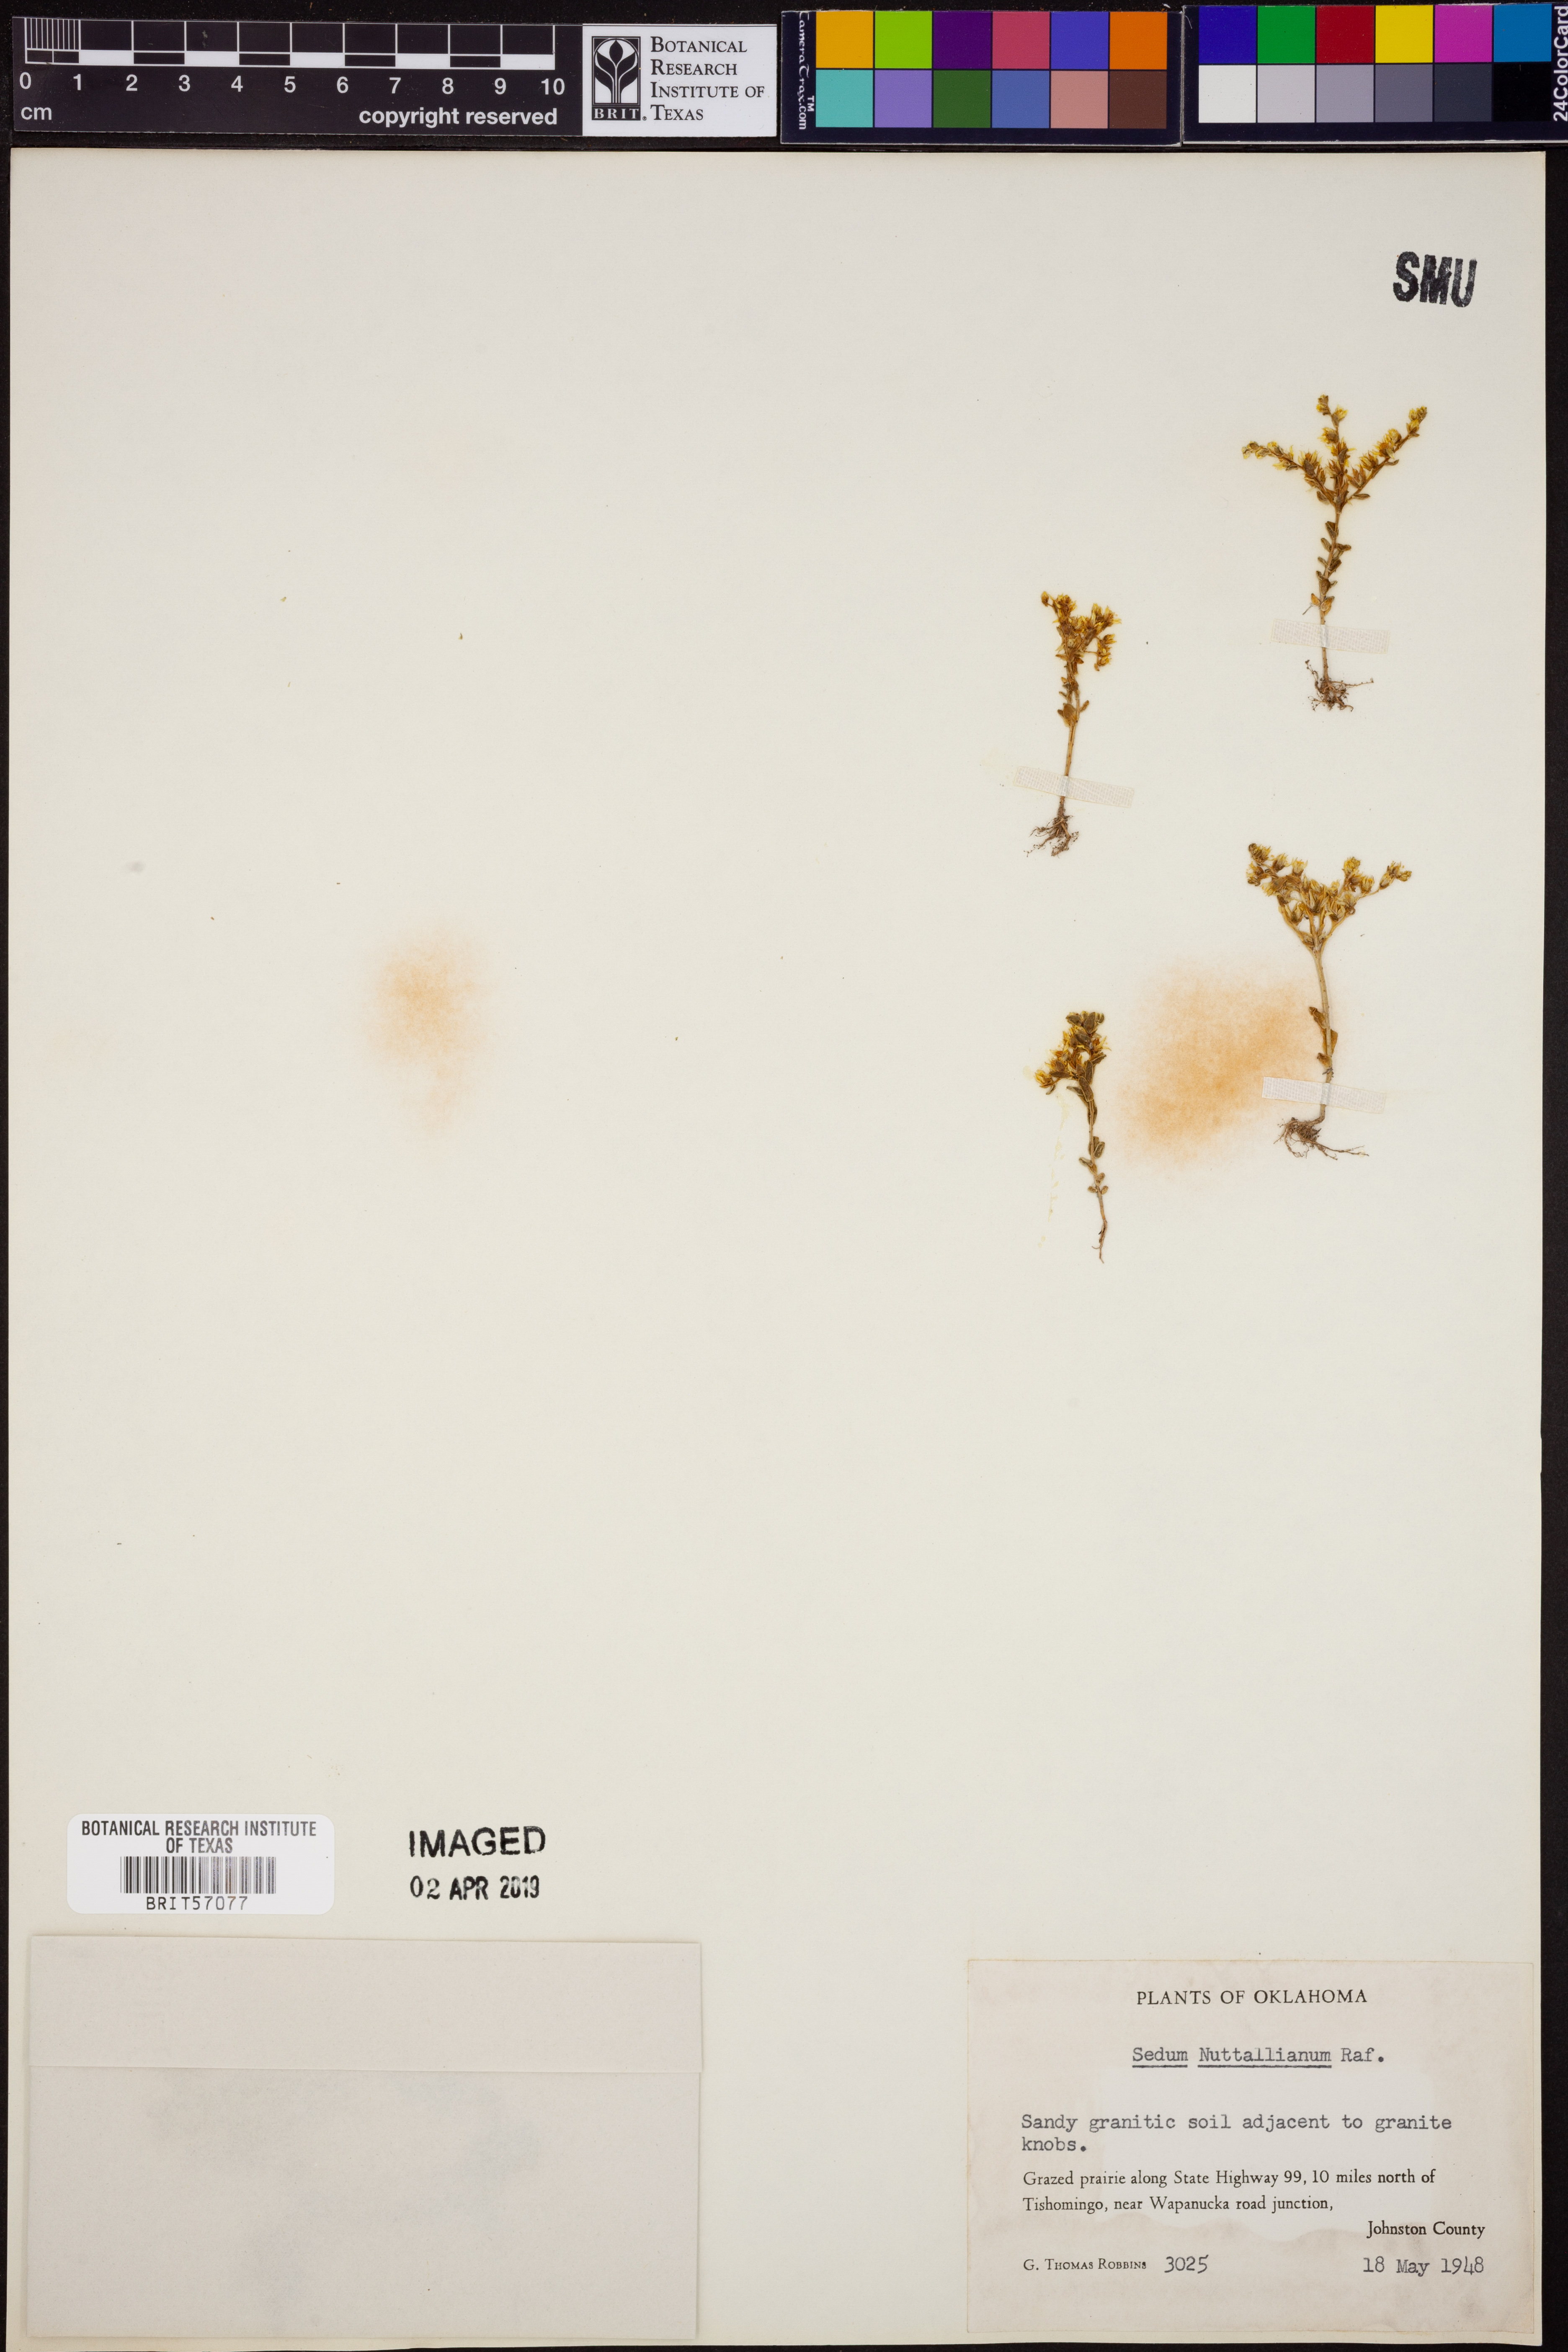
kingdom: Plantae
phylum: Tracheophyta
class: Magnoliopsida
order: Saxifragales
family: Crassulaceae
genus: Sedum
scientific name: Sedum nuttallii
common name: Yellow stonecrop
